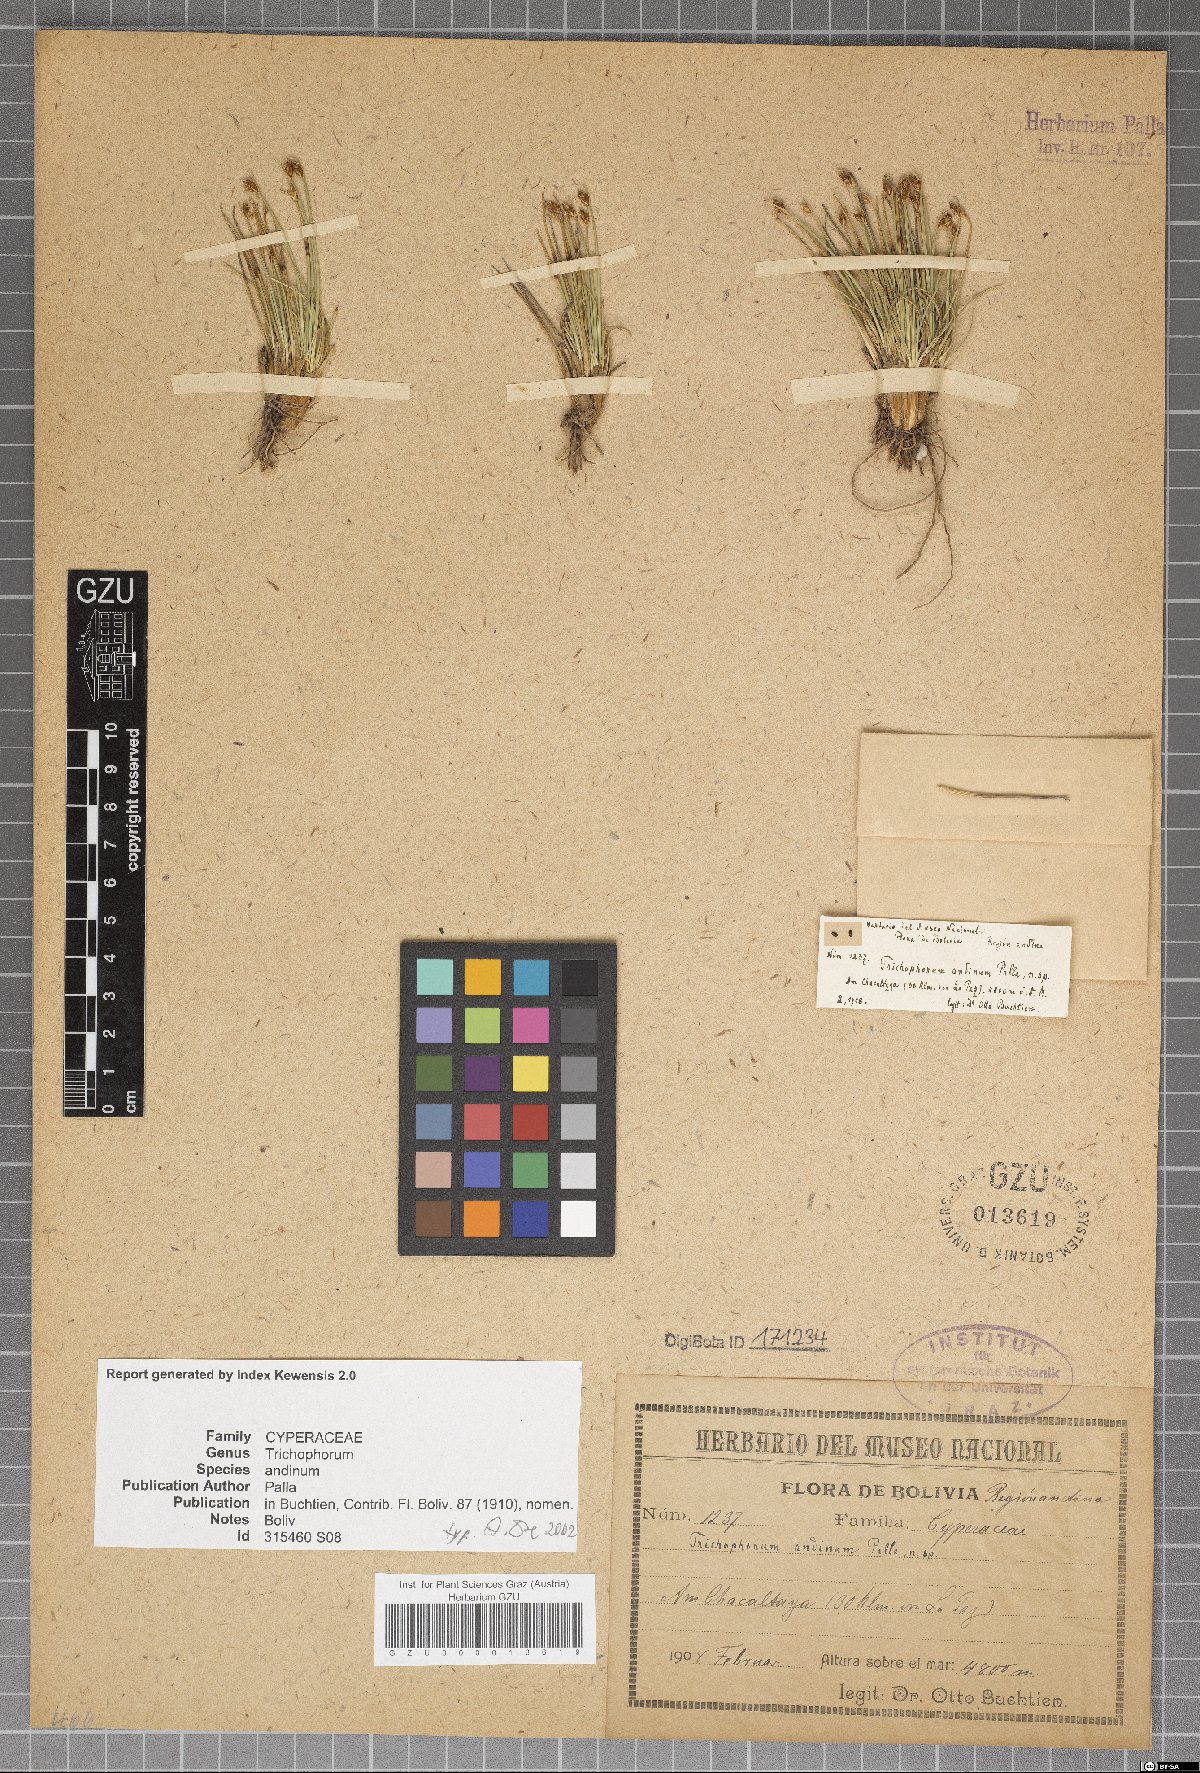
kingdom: Plantae
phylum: Tracheophyta
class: Liliopsida
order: Poales
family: Cyperaceae
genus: Trichophorum
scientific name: Trichophorum andinum
